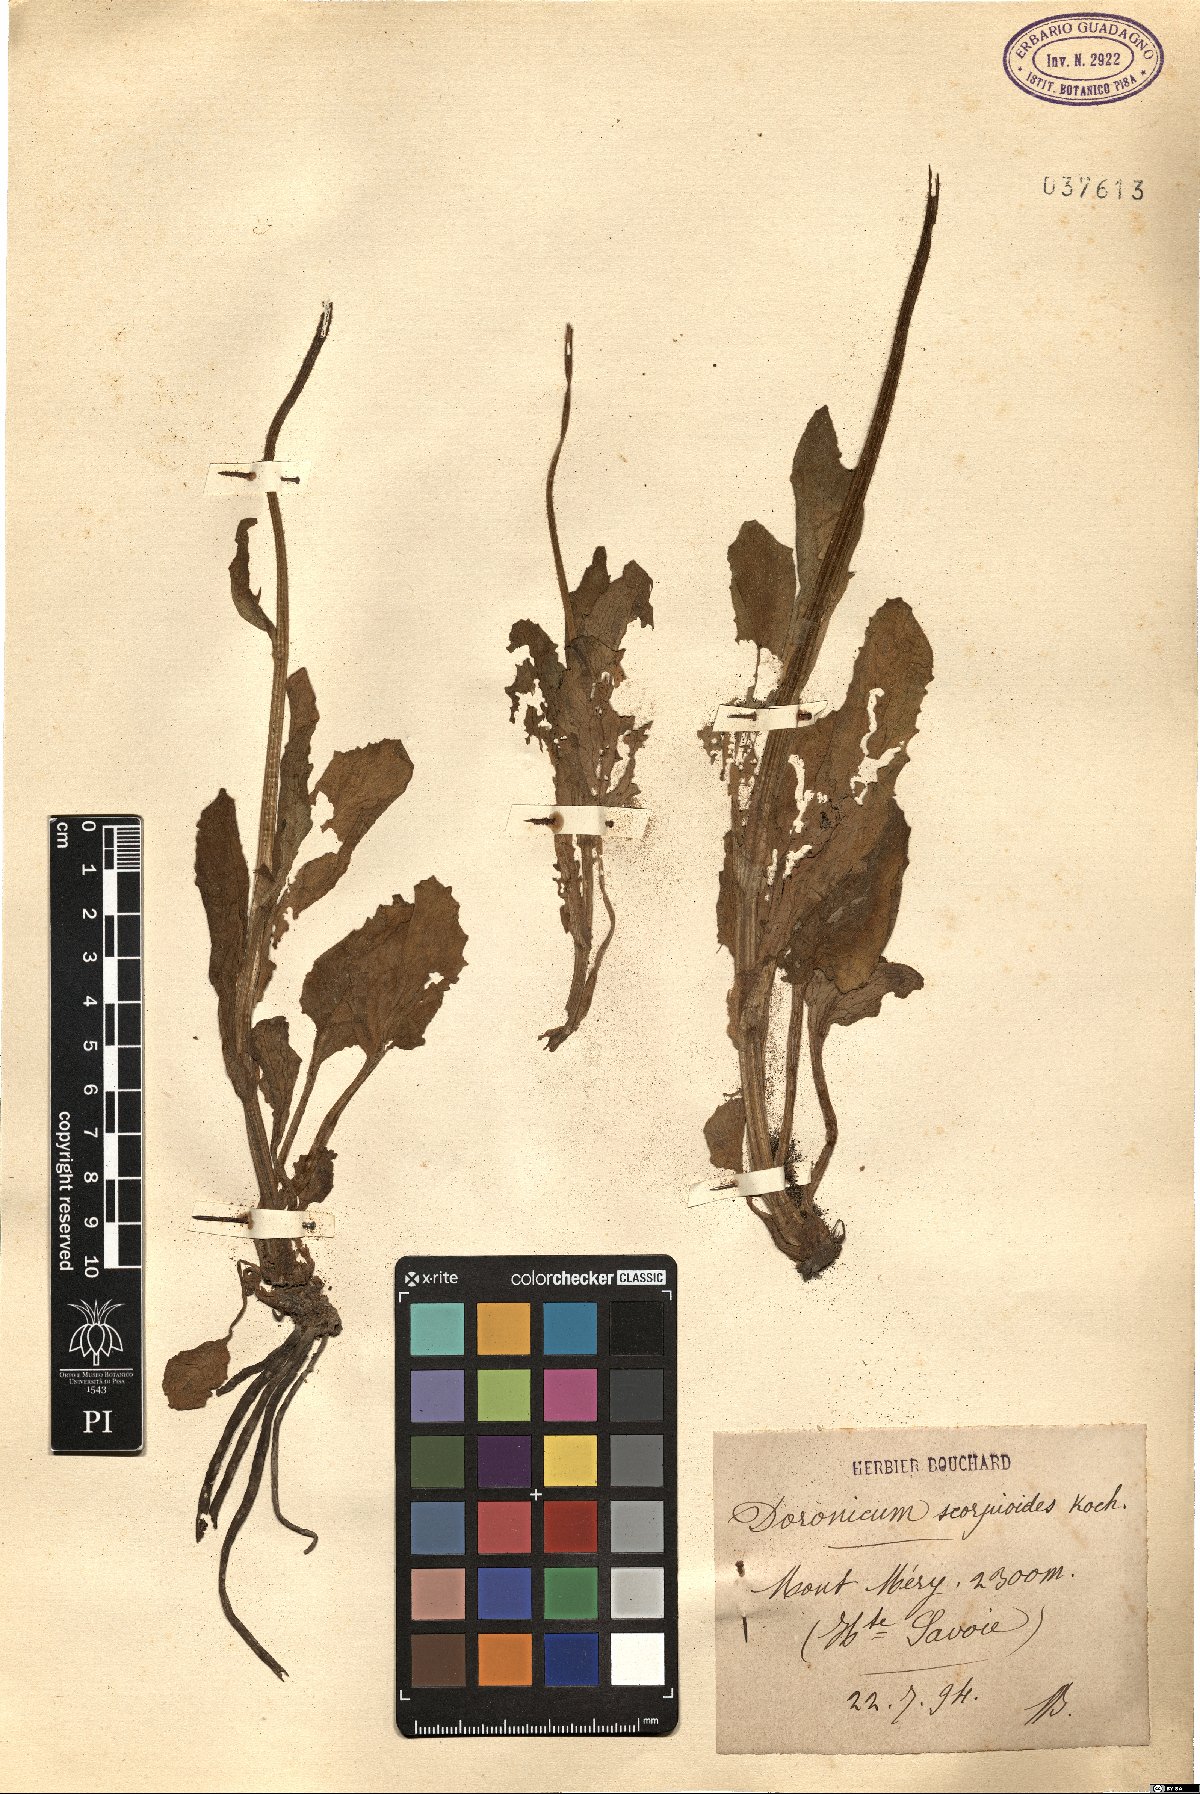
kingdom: Plantae
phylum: Tracheophyta
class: Magnoliopsida
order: Asterales
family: Asteraceae
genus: Doronicum
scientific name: Doronicum grandiflorum
